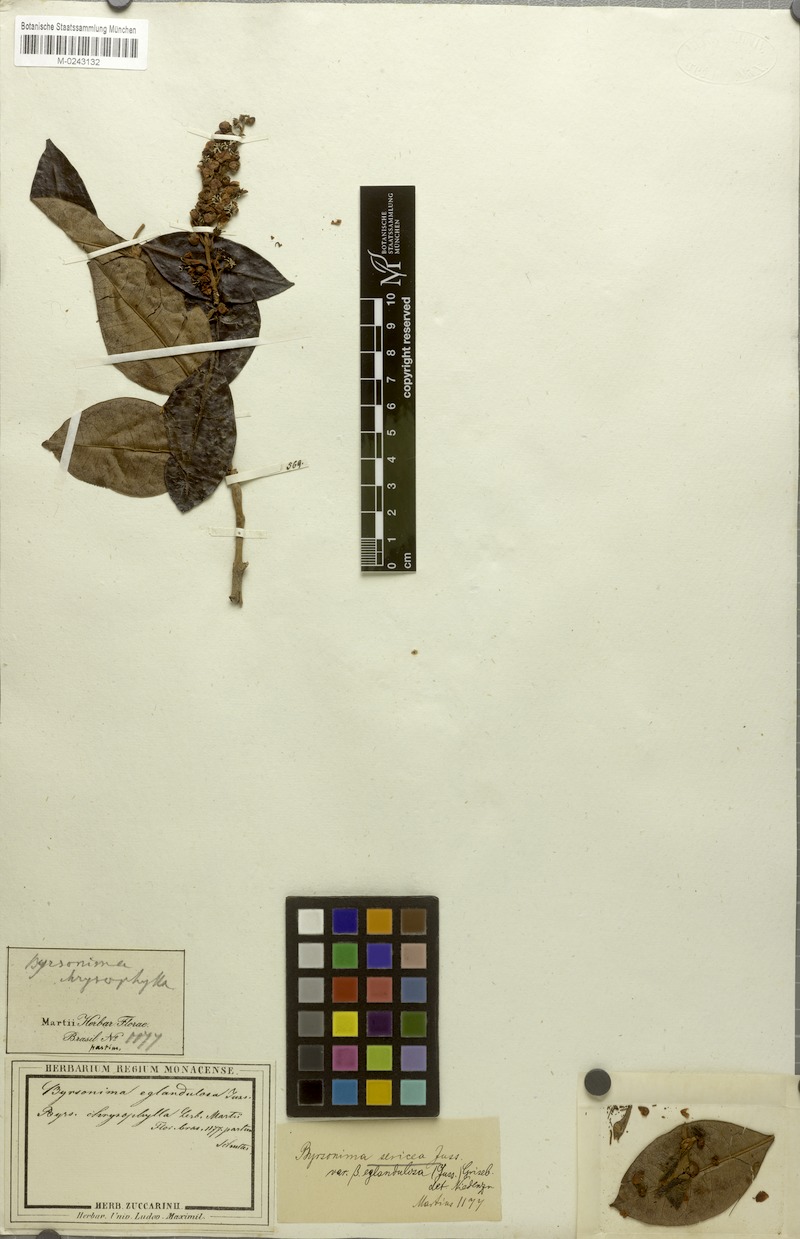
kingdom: Plantae
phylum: Tracheophyta
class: Magnoliopsida
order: Malpighiales
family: Malpighiaceae
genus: Byrsonima
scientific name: Byrsonima sericea
